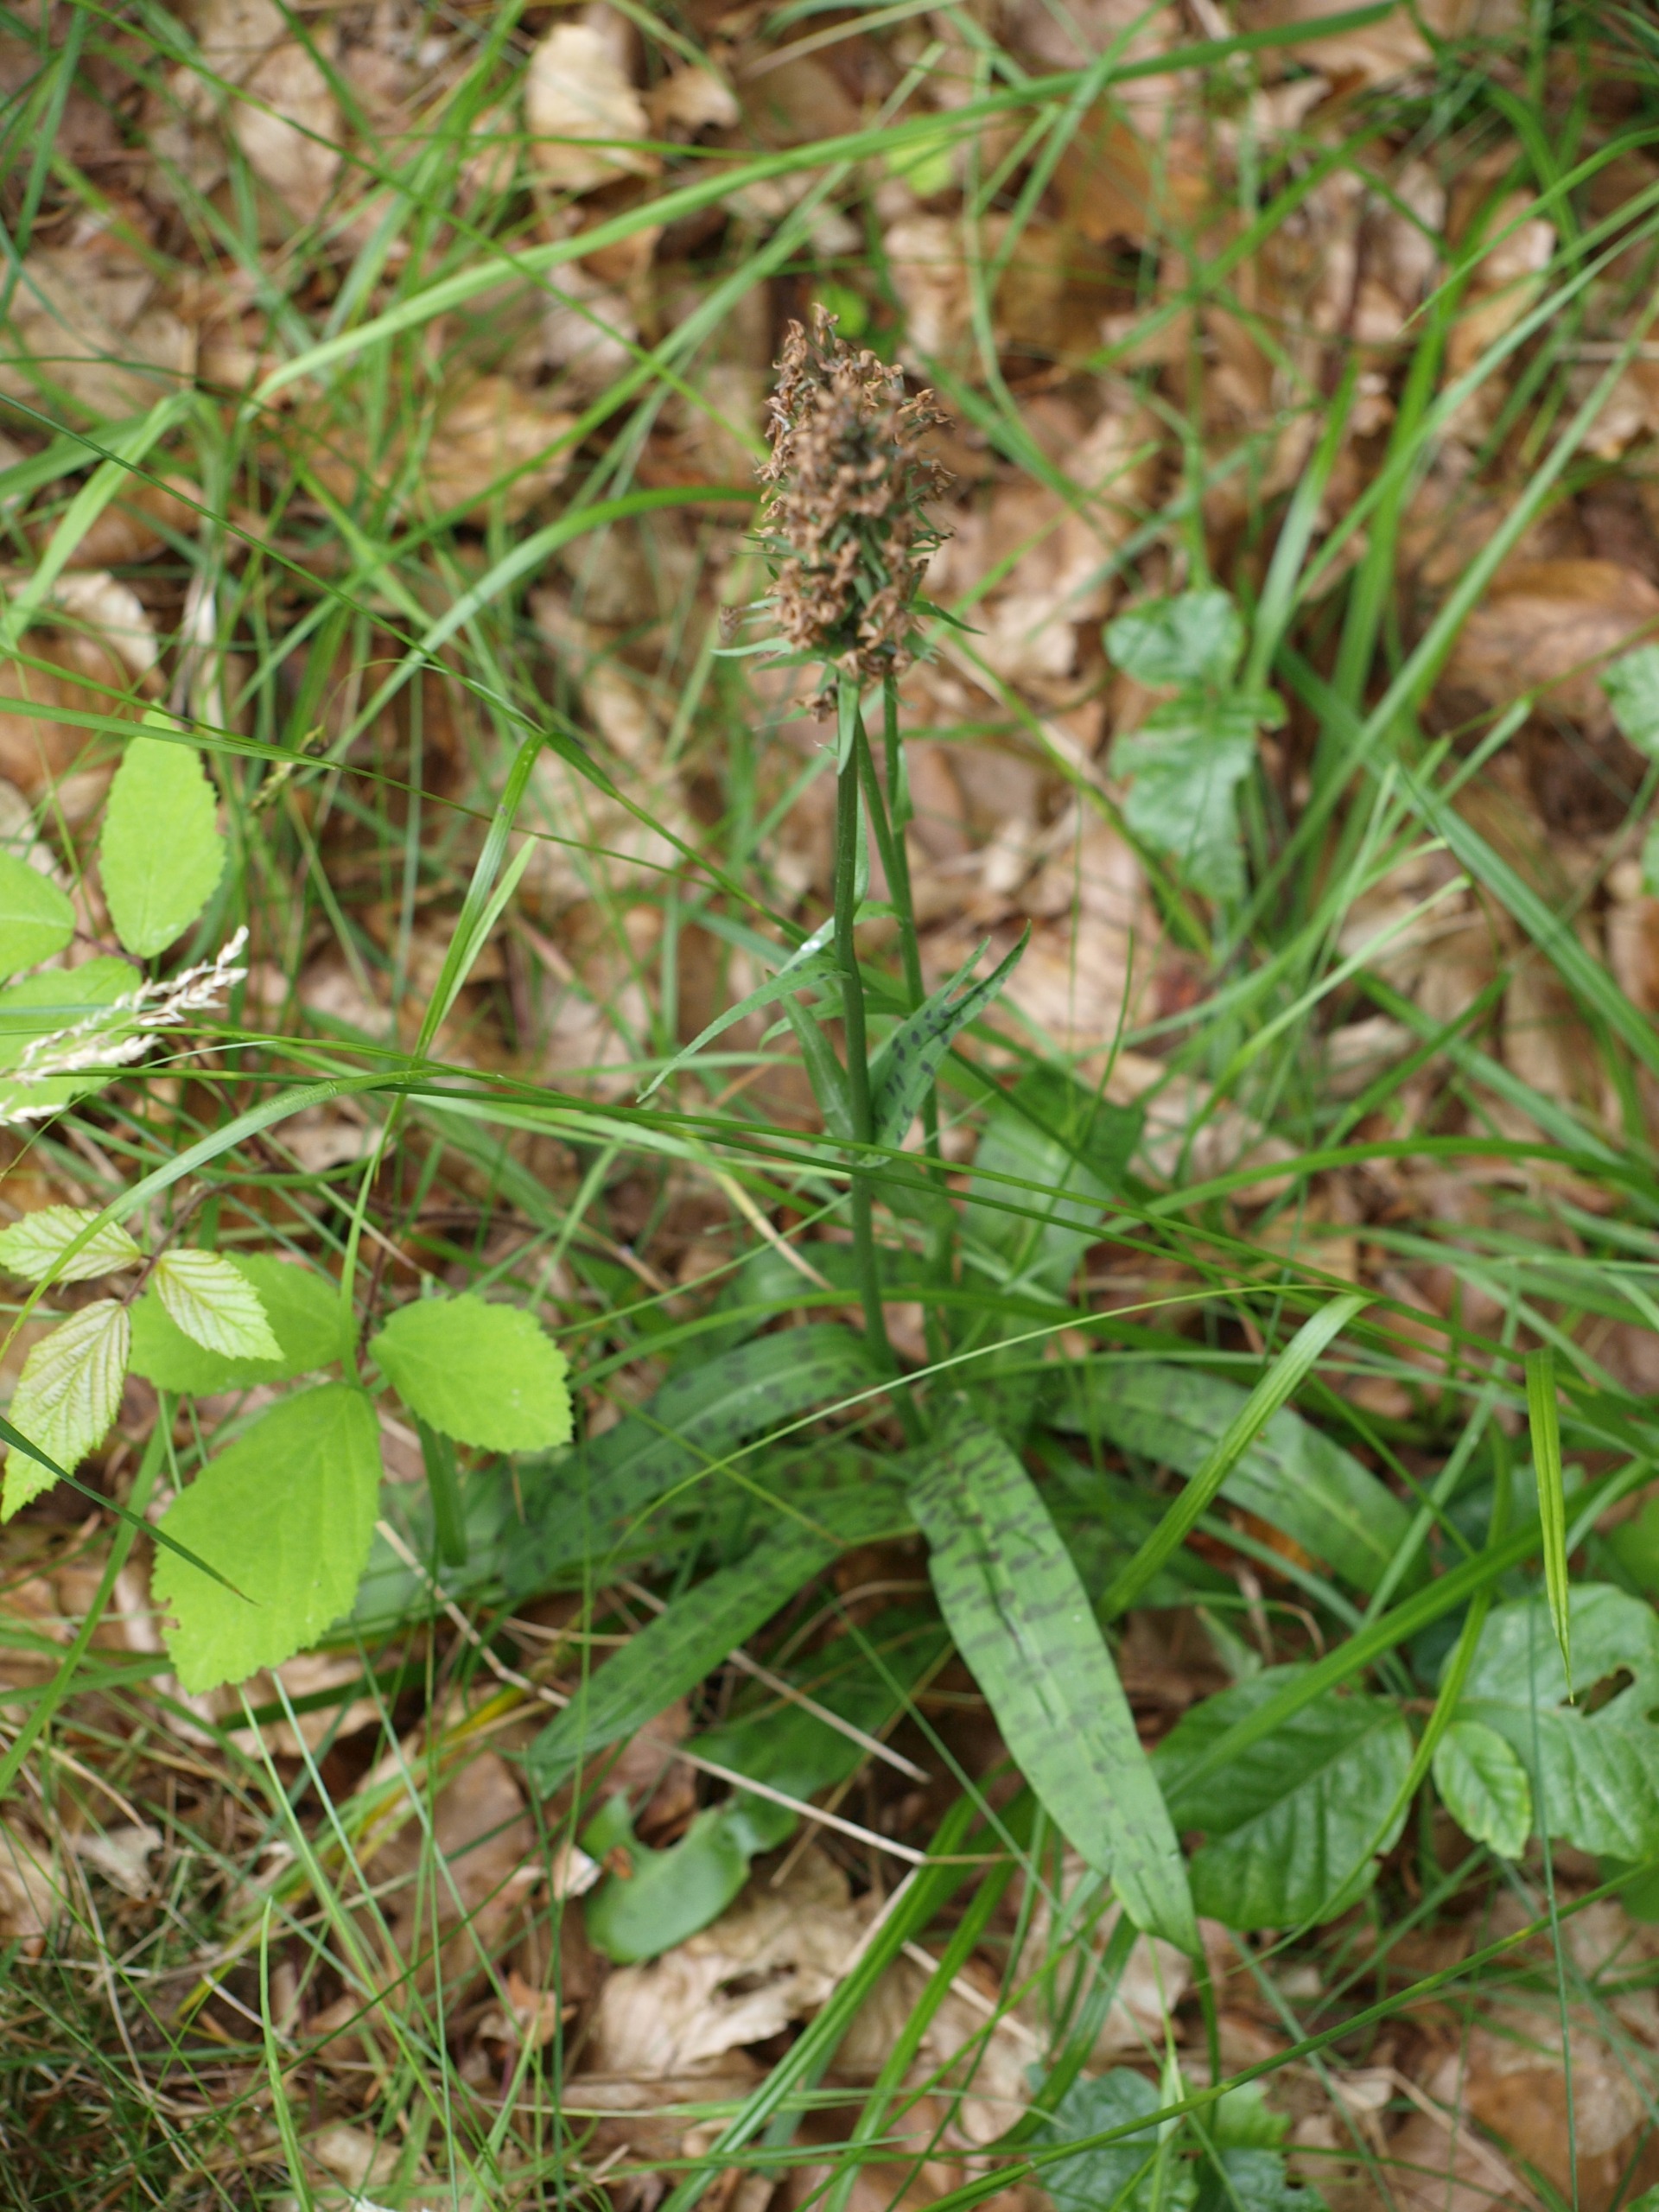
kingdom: Plantae
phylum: Tracheophyta
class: Liliopsida
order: Asparagales
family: Orchidaceae
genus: Dactylorhiza
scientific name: Dactylorhiza maculata
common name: Skov-gøgeurt
